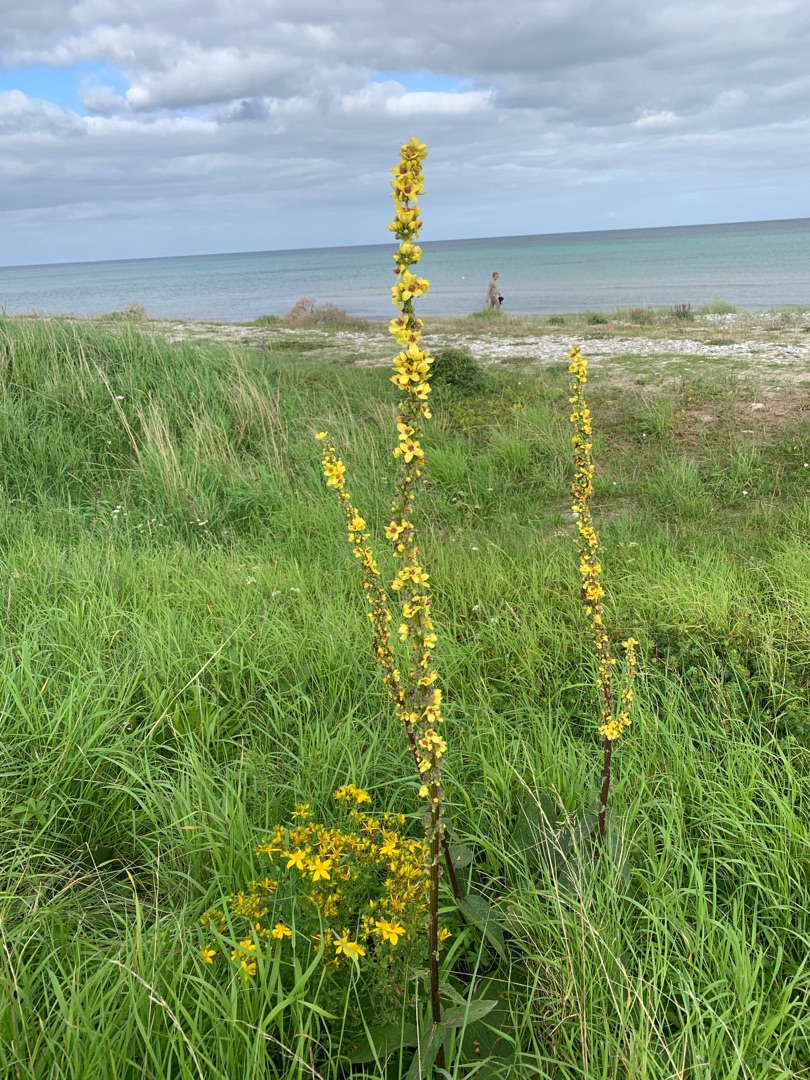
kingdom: Plantae
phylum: Tracheophyta
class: Magnoliopsida
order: Lamiales
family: Scrophulariaceae
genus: Verbascum
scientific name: Verbascum nigrum
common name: Mørk kongelys
